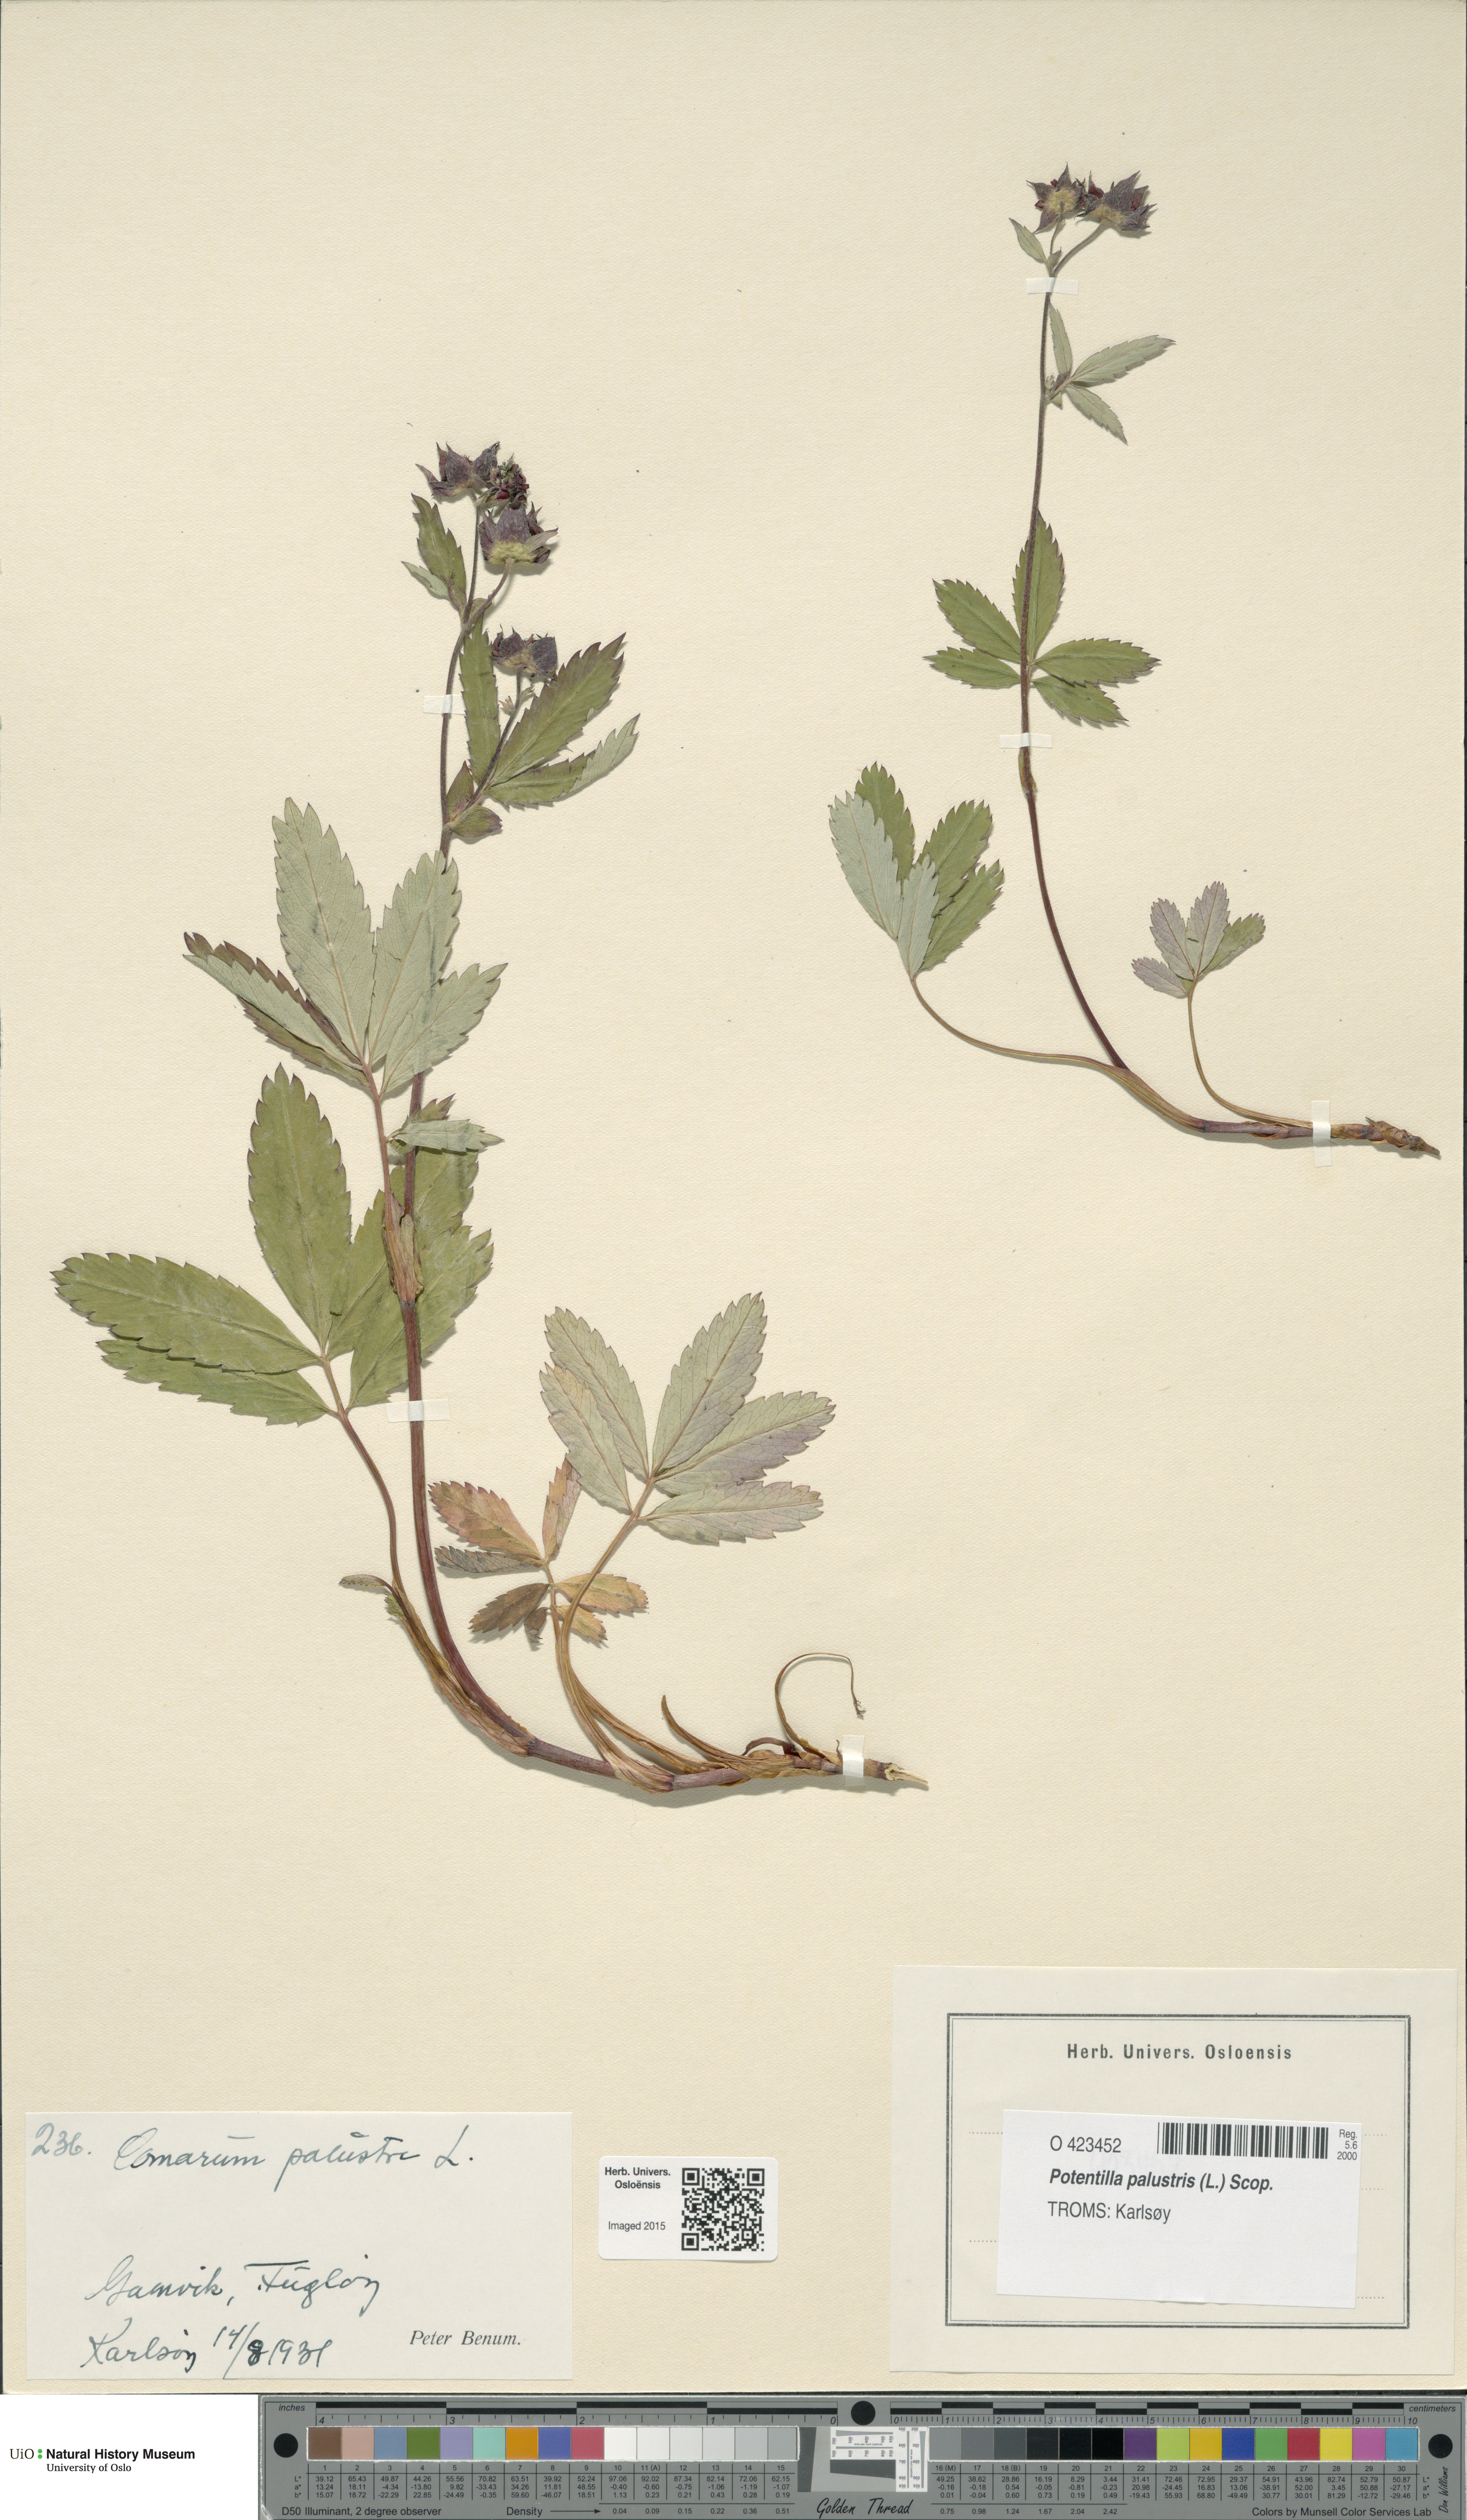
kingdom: Plantae
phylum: Tracheophyta
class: Magnoliopsida
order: Rosales
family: Rosaceae
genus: Comarum
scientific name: Comarum palustre
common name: Marsh cinquefoil
